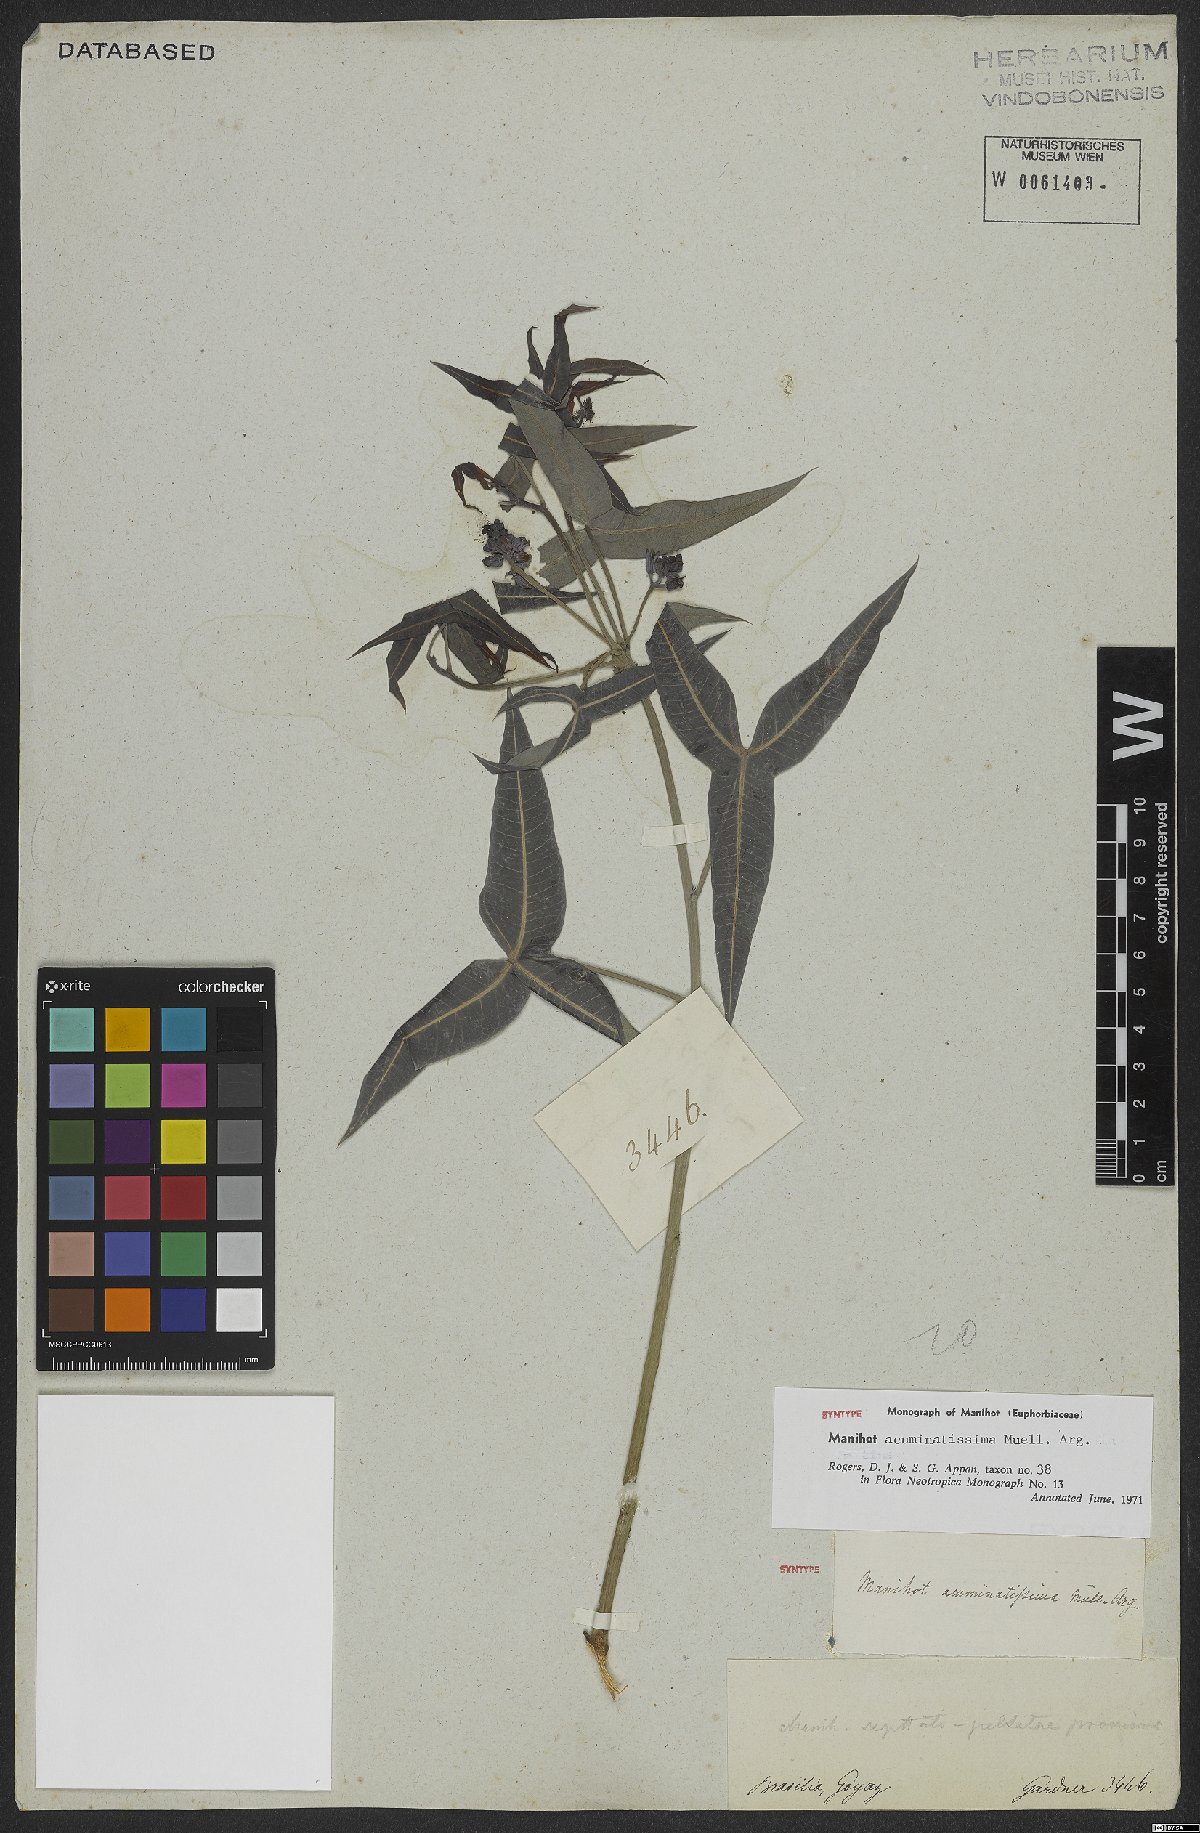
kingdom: Plantae
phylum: Tracheophyta
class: Magnoliopsida
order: Malpighiales
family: Euphorbiaceae
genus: Manihot
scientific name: Manihot acuminatissima
